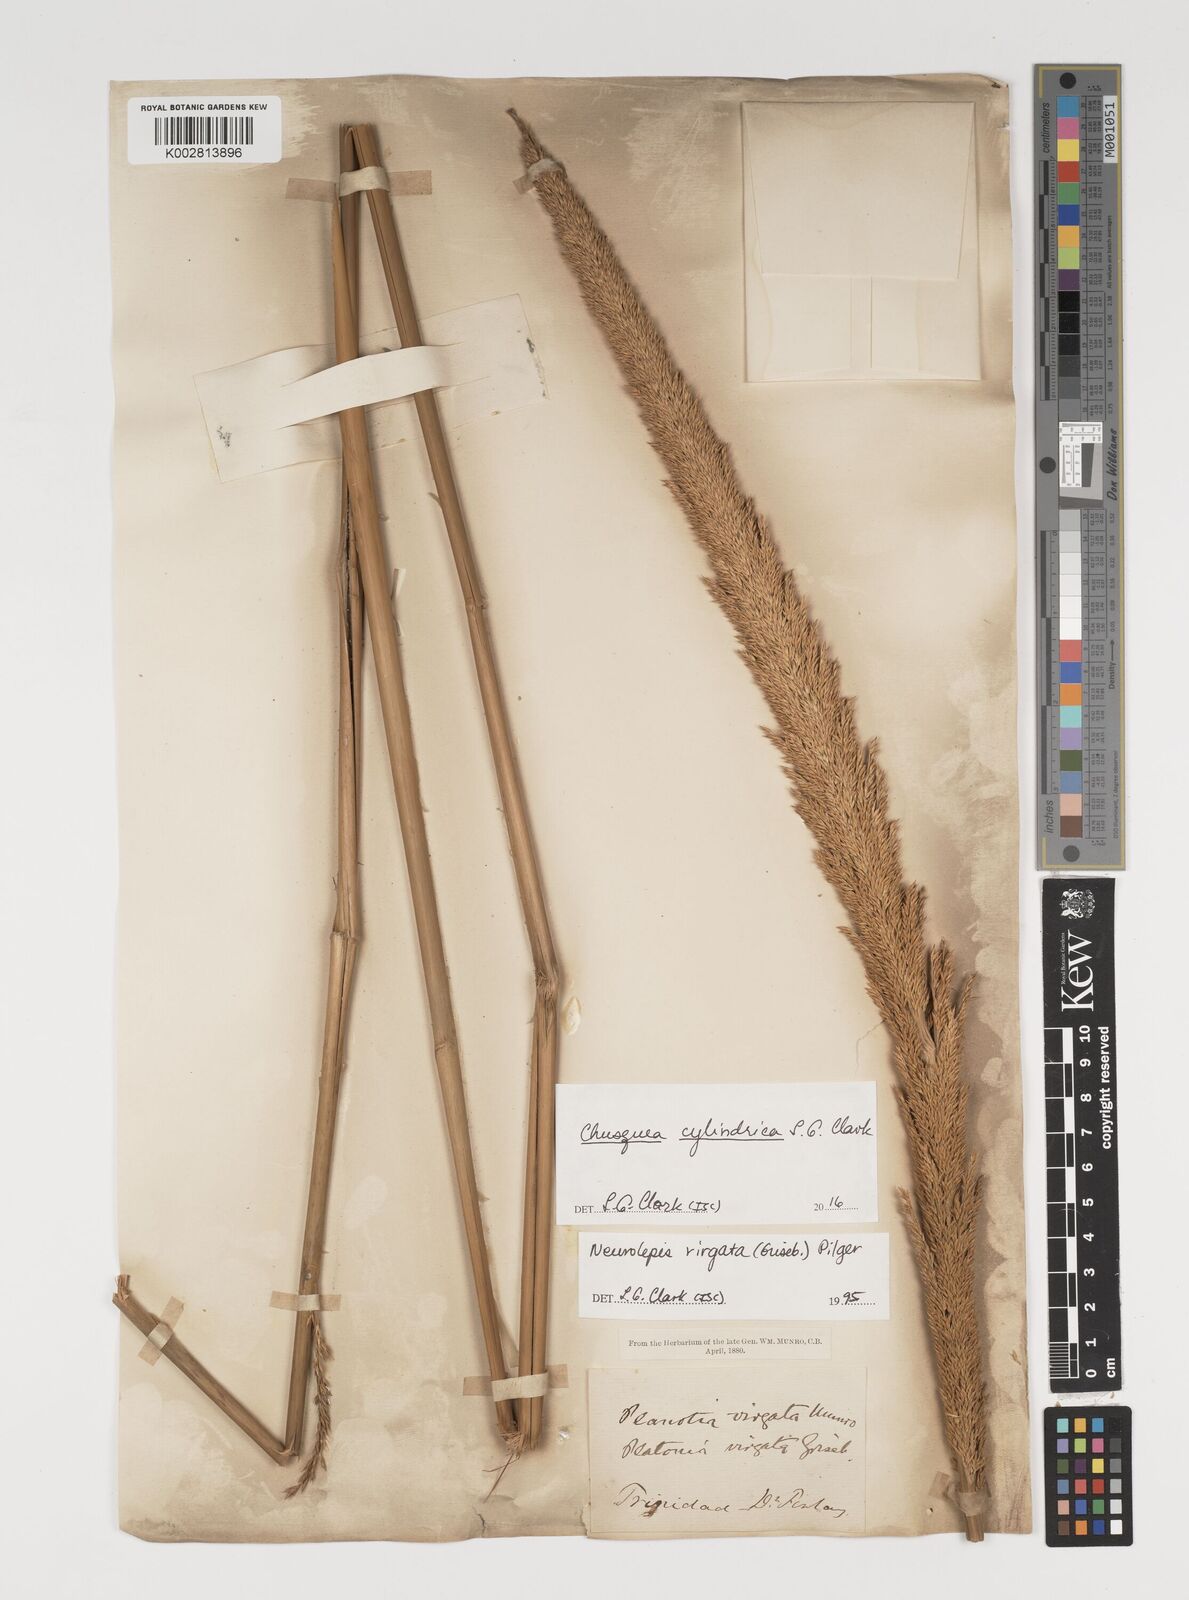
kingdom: Plantae
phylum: Tracheophyta
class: Liliopsida
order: Poales
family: Poaceae
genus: Chusquea
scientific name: Chusquea cylindrica
